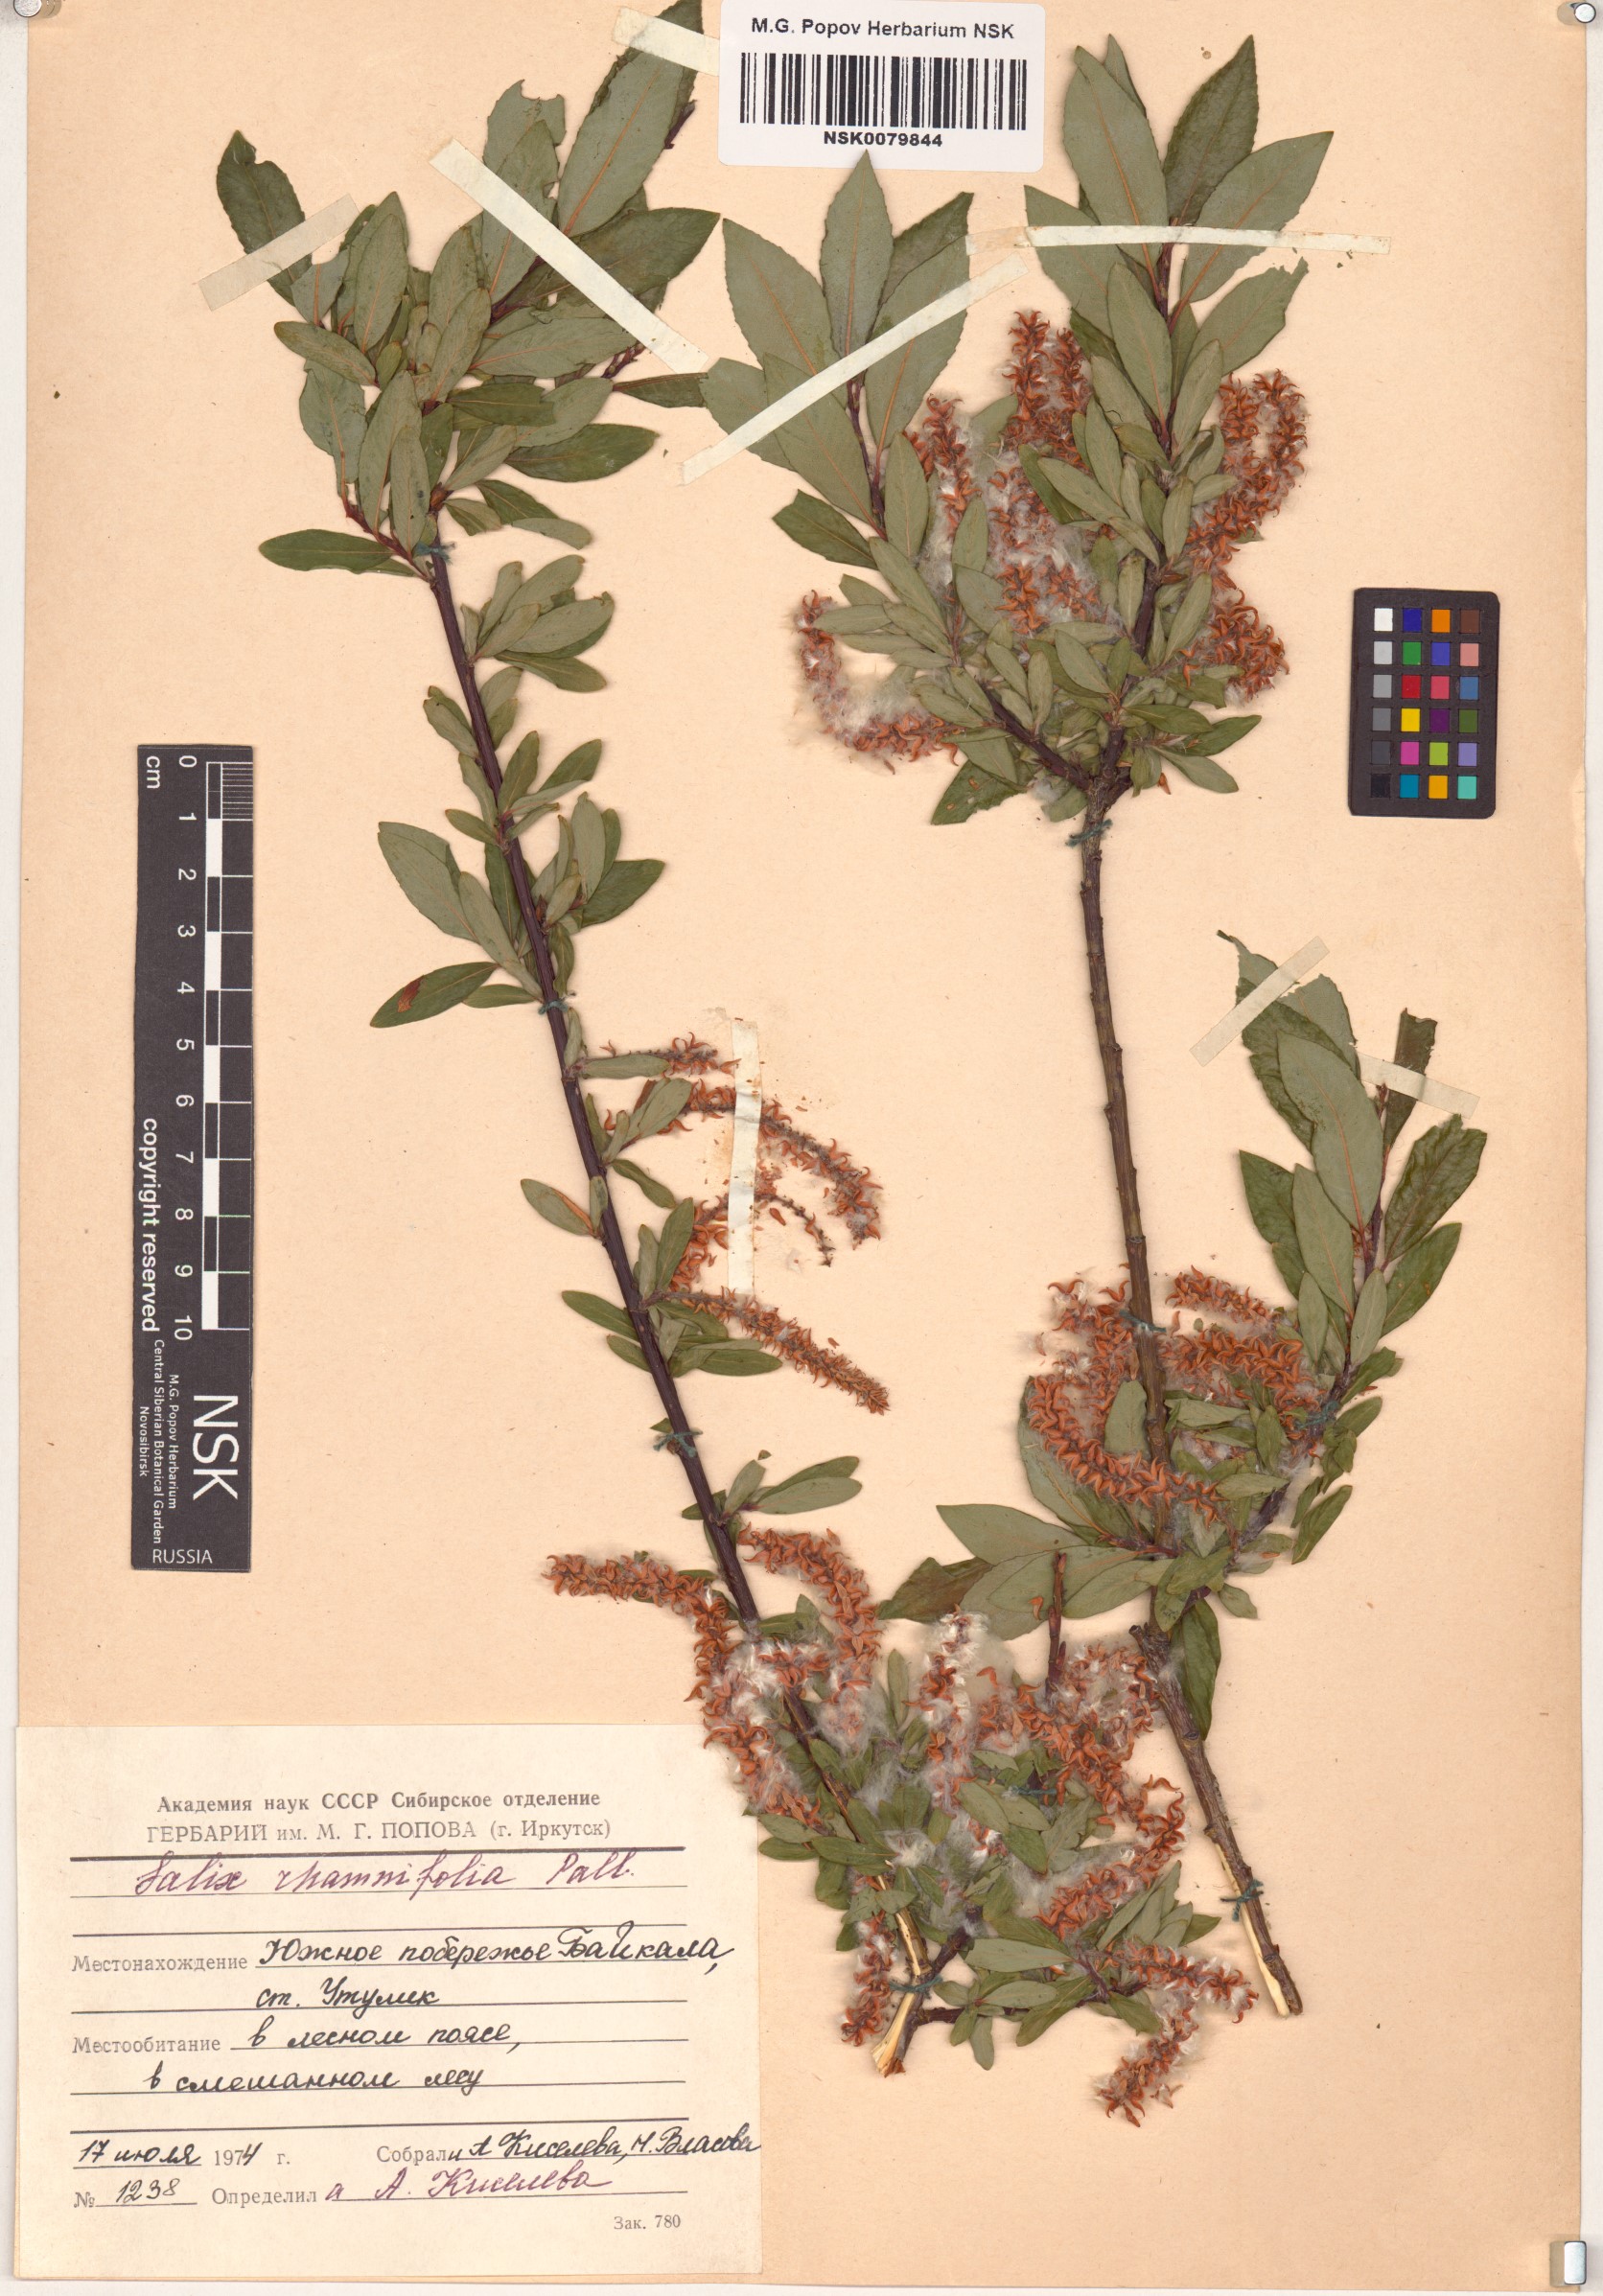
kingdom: Plantae
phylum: Tracheophyta
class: Magnoliopsida
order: Malpighiales
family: Salicaceae
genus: Salix
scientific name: Salix rhamnifolia
